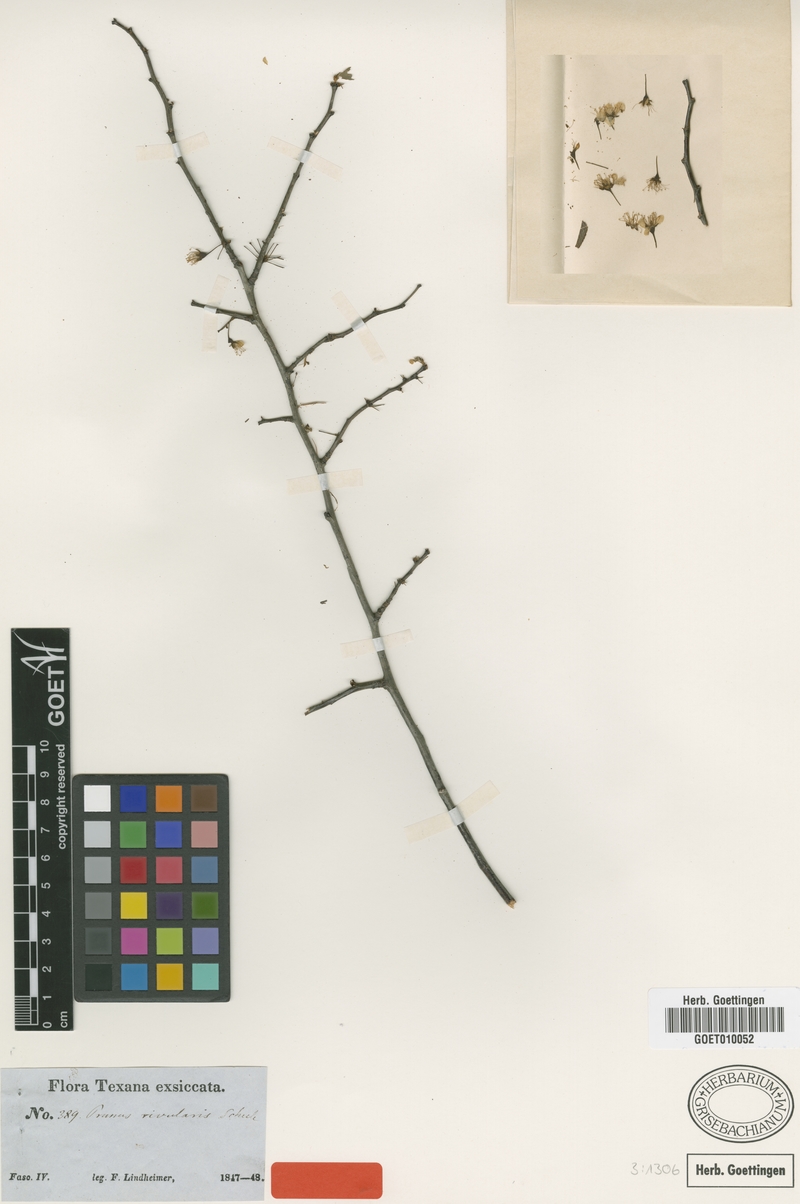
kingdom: Plantae
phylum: Tracheophyta
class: Magnoliopsida
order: Rosales
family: Rosaceae
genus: Prunus
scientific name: Prunus rivularis
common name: Creek plum
